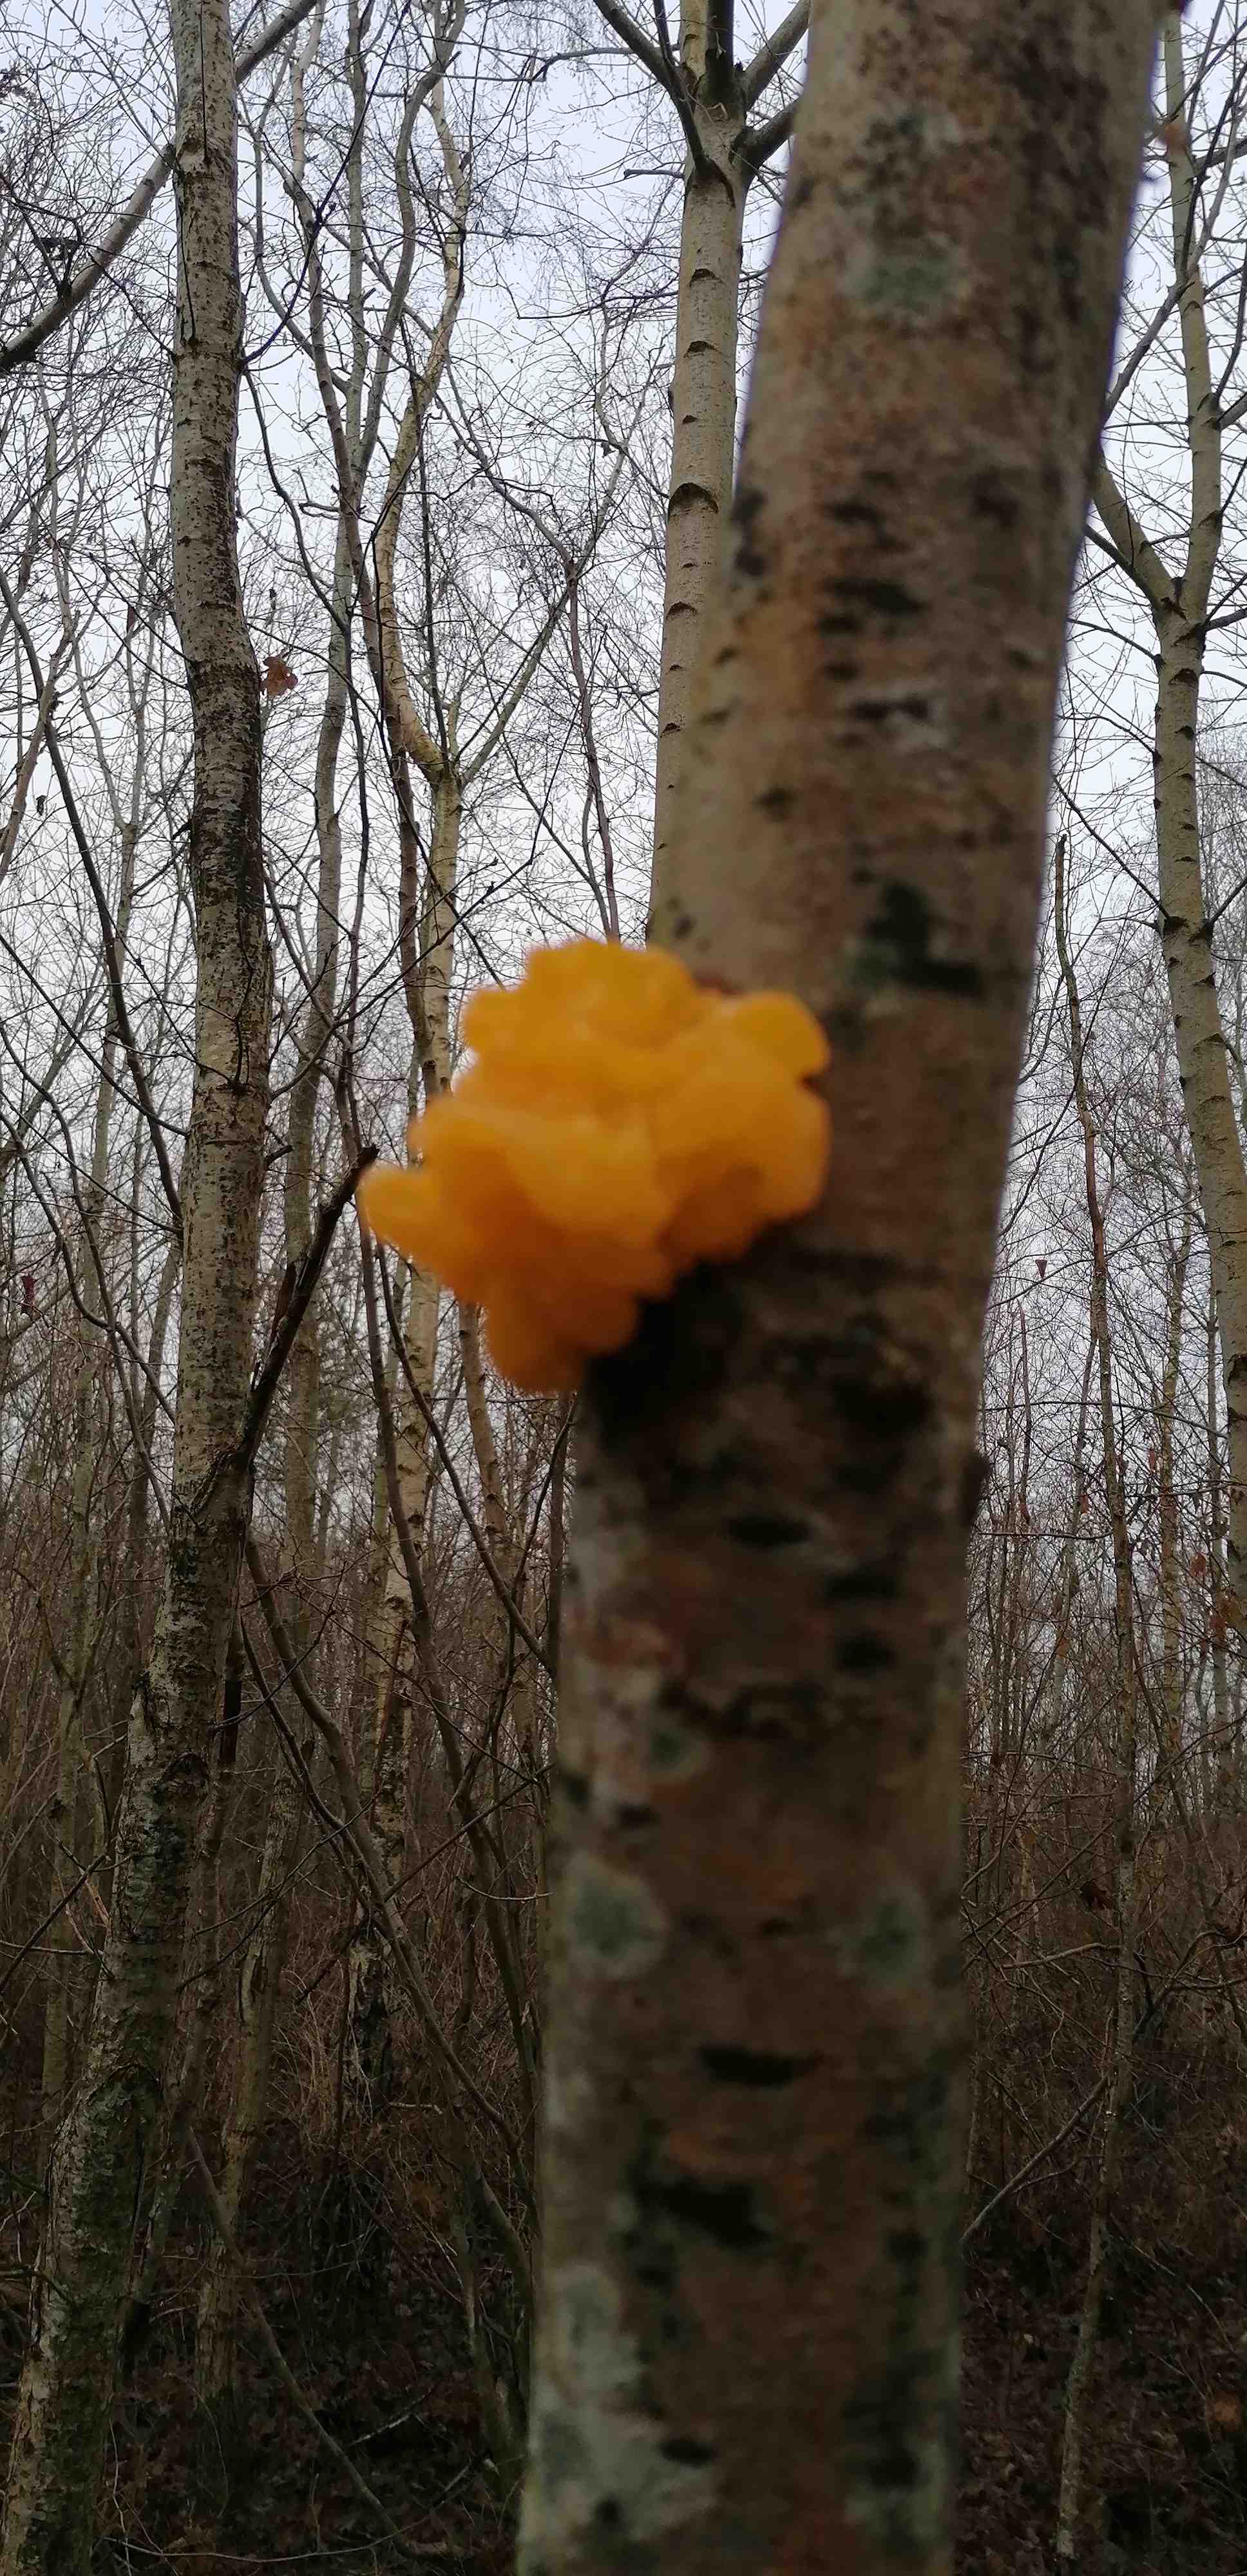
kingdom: Fungi
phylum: Basidiomycota
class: Tremellomycetes
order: Tremellales
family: Tremellaceae
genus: Tremella
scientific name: Tremella mesenterica
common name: gul bævresvamp
